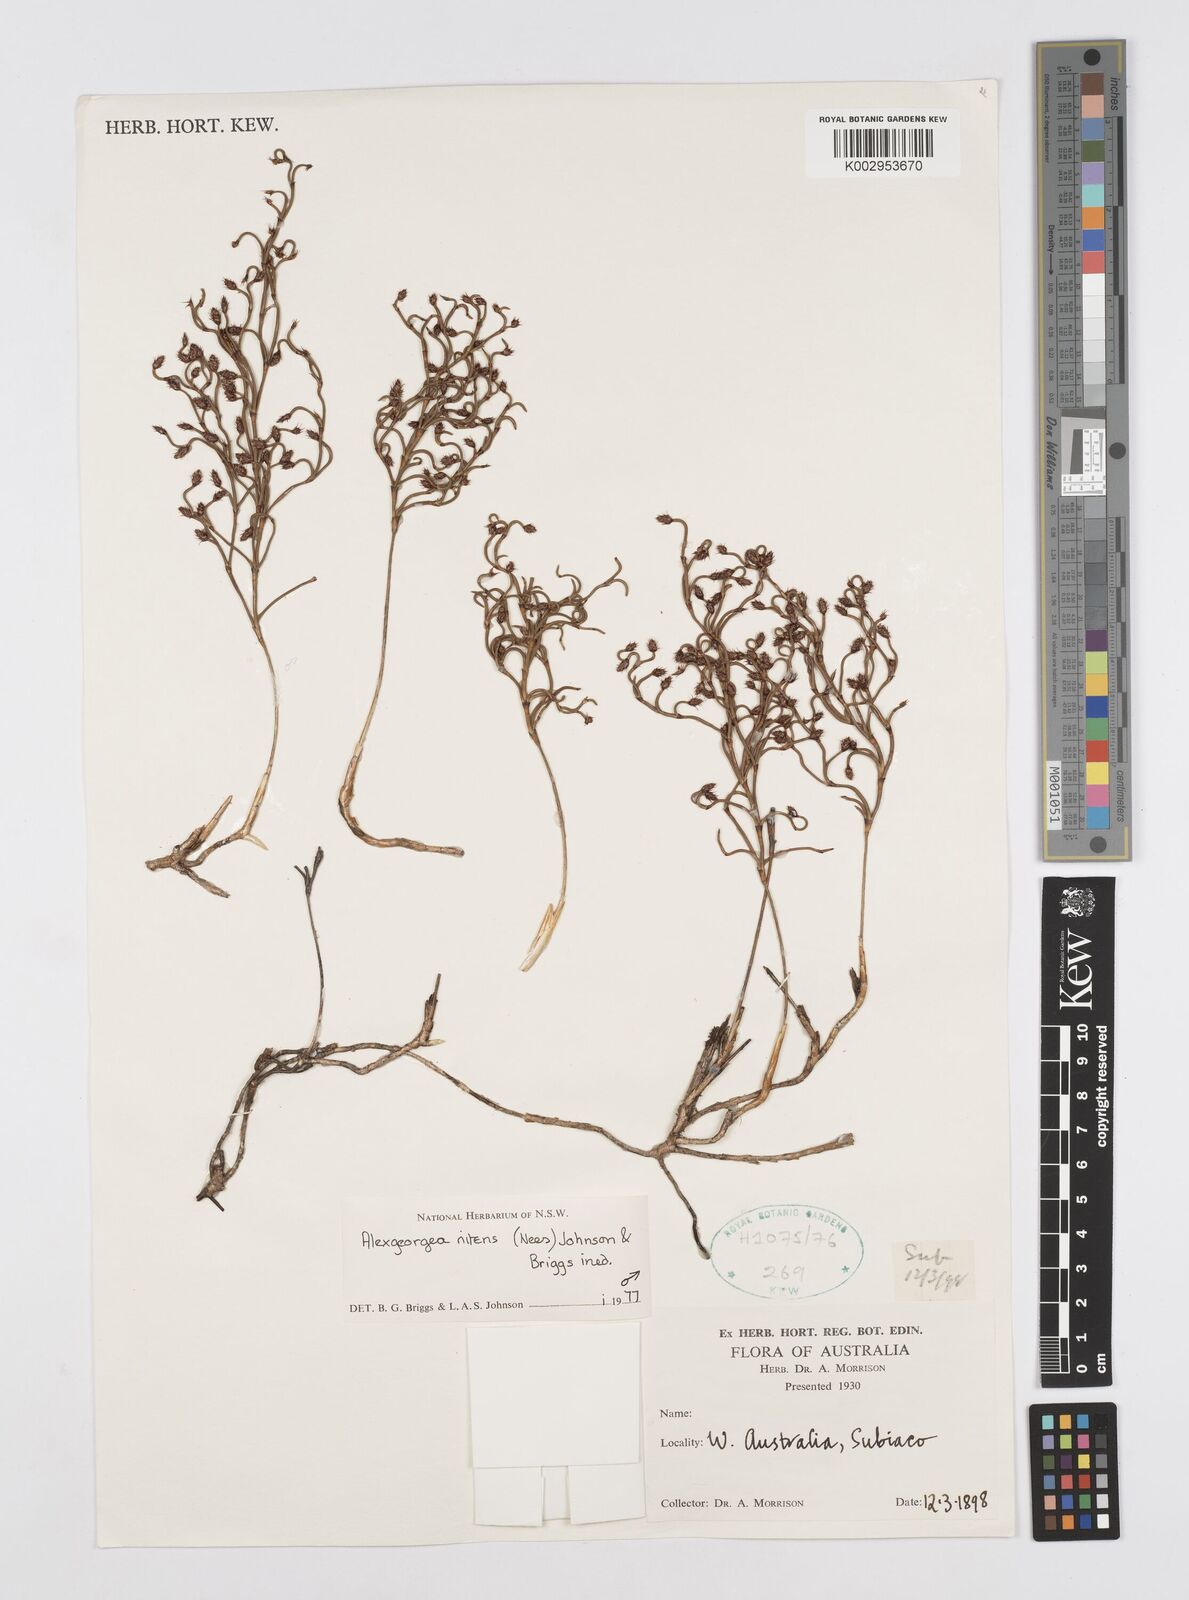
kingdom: Plantae
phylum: Tracheophyta
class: Liliopsida
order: Poales
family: Restionaceae
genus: Alexgeorgea
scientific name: Alexgeorgea nitens
